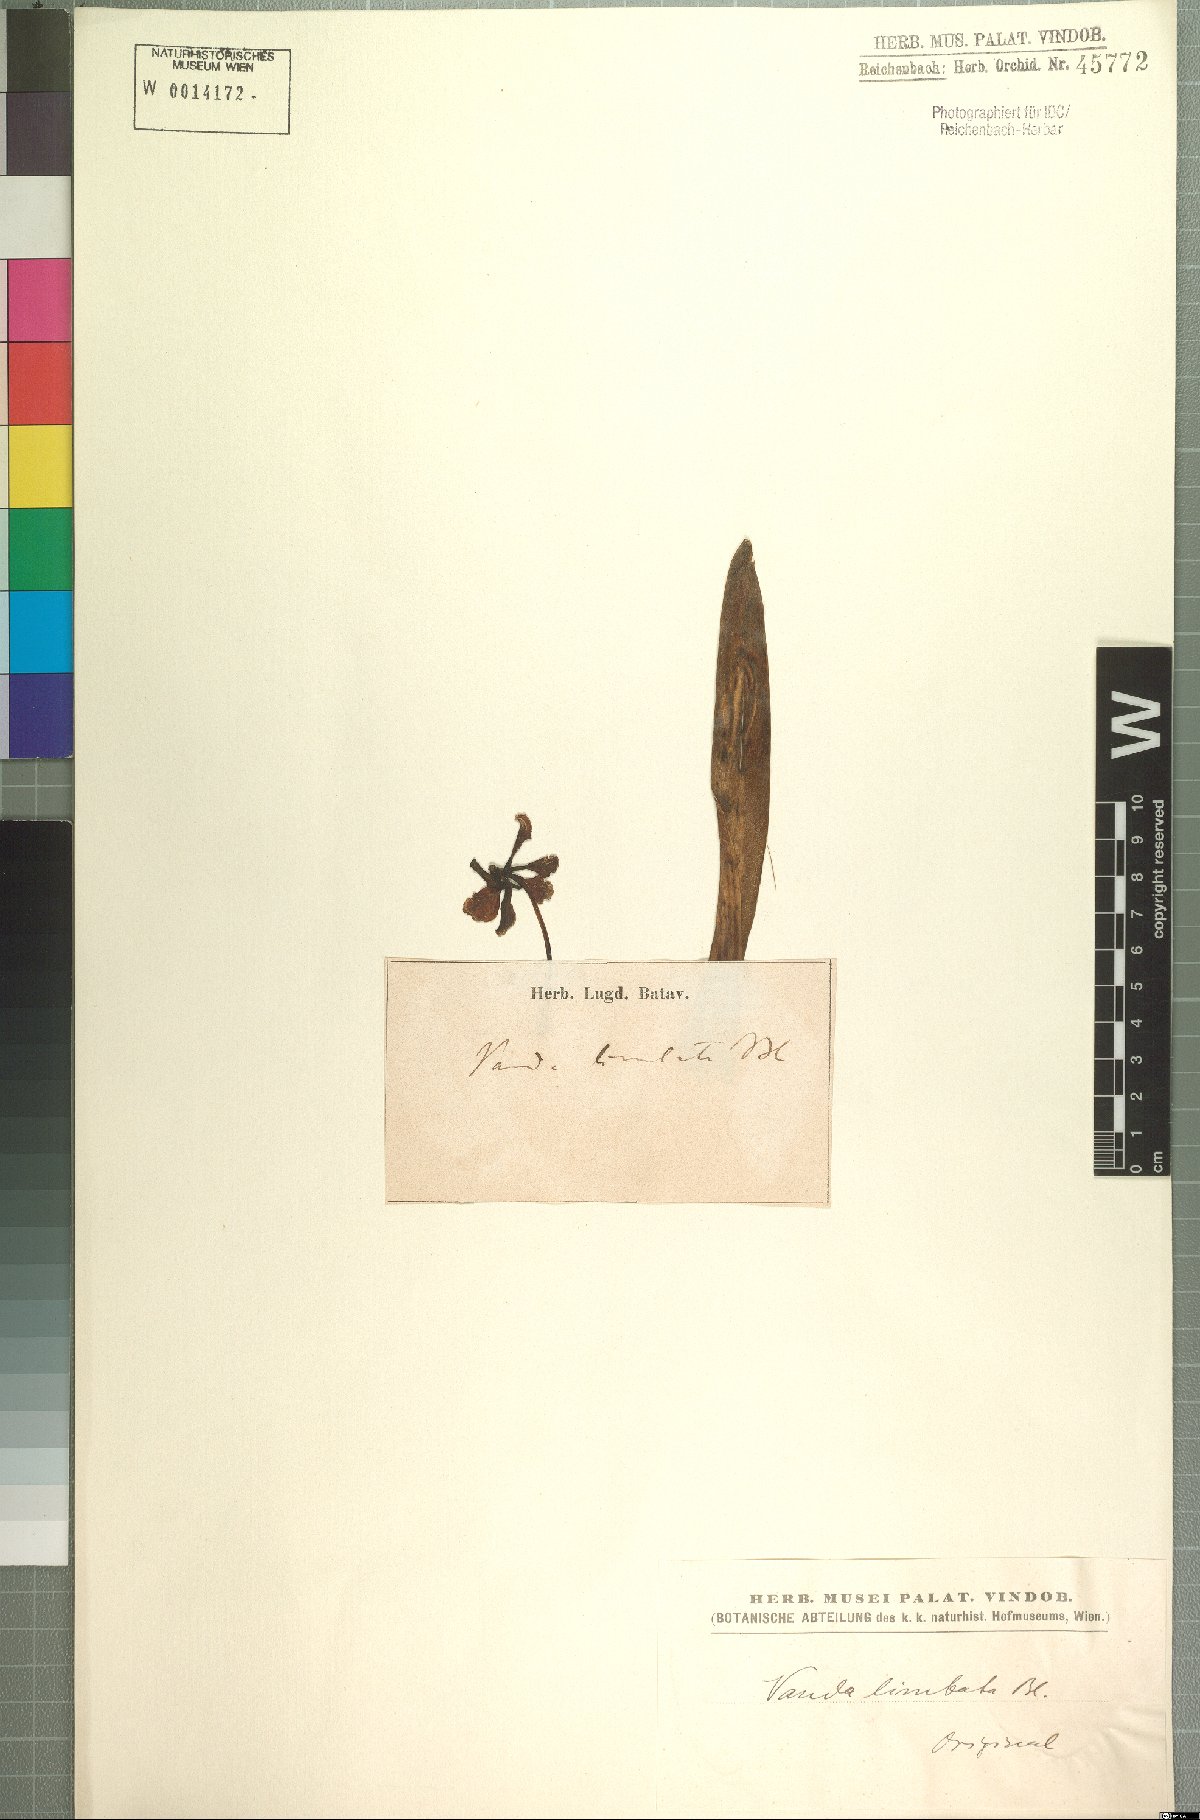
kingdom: Plantae
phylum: Tracheophyta
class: Liliopsida
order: Asparagales
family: Orchidaceae
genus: Vanda
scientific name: Vanda limbata
